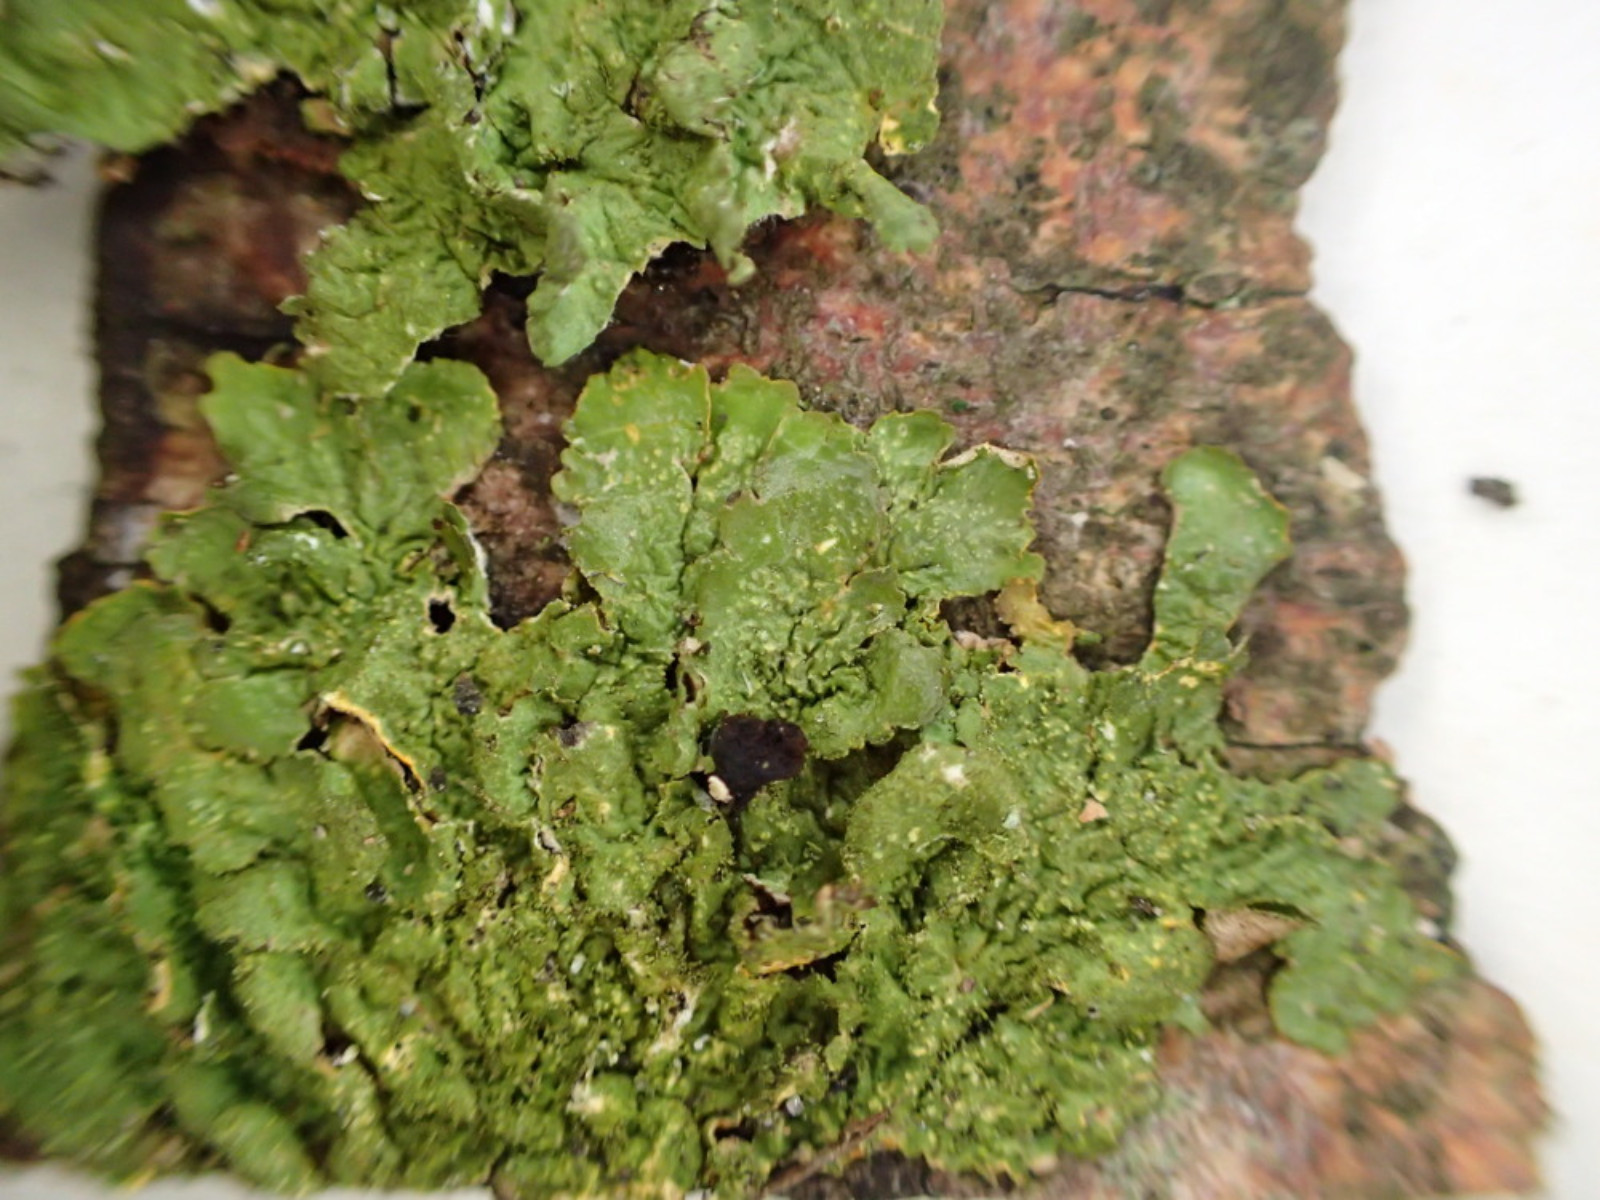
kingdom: Fungi
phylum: Ascomycota
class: Lecanoromycetes
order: Lecanorales
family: Parmeliaceae
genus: Melanelixia
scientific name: Melanelixia glabratula
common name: glinsende skållav
